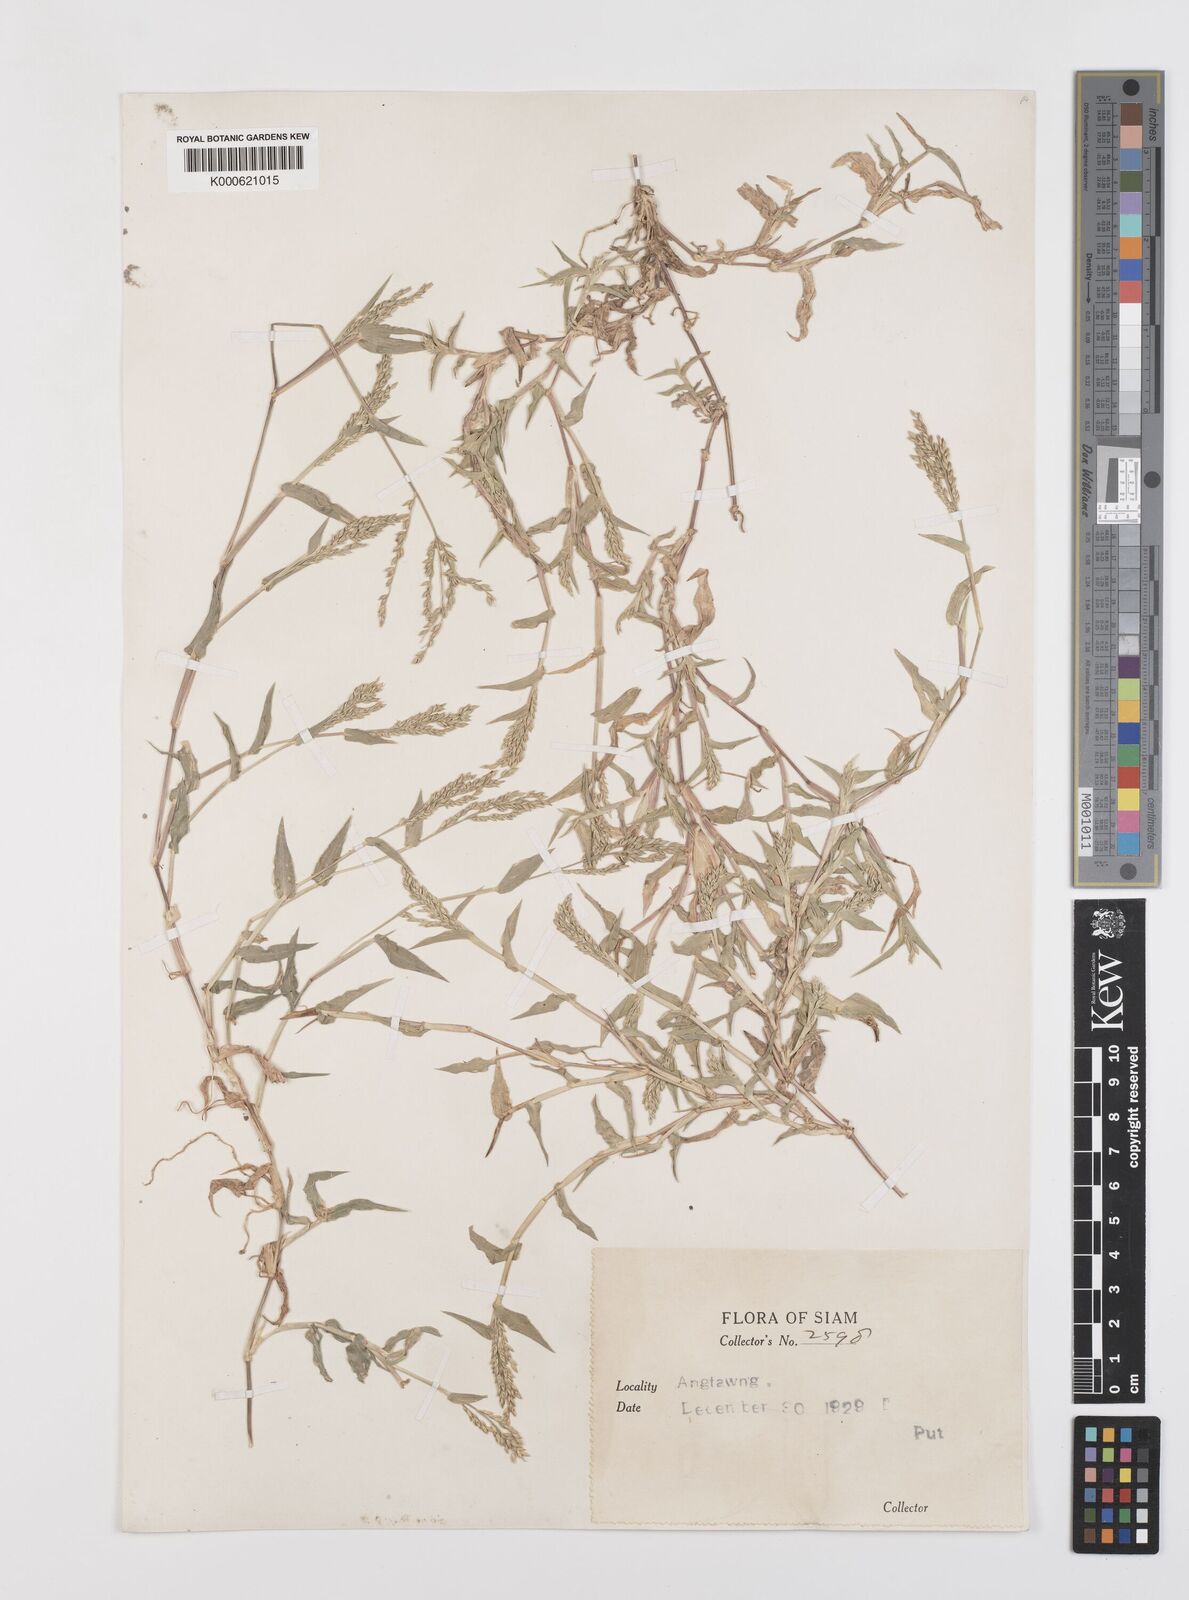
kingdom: Plantae
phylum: Tracheophyta
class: Liliopsida
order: Poales
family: Poaceae
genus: Urochloa
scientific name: Urochloa reptans
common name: Sprawling signalgrass
